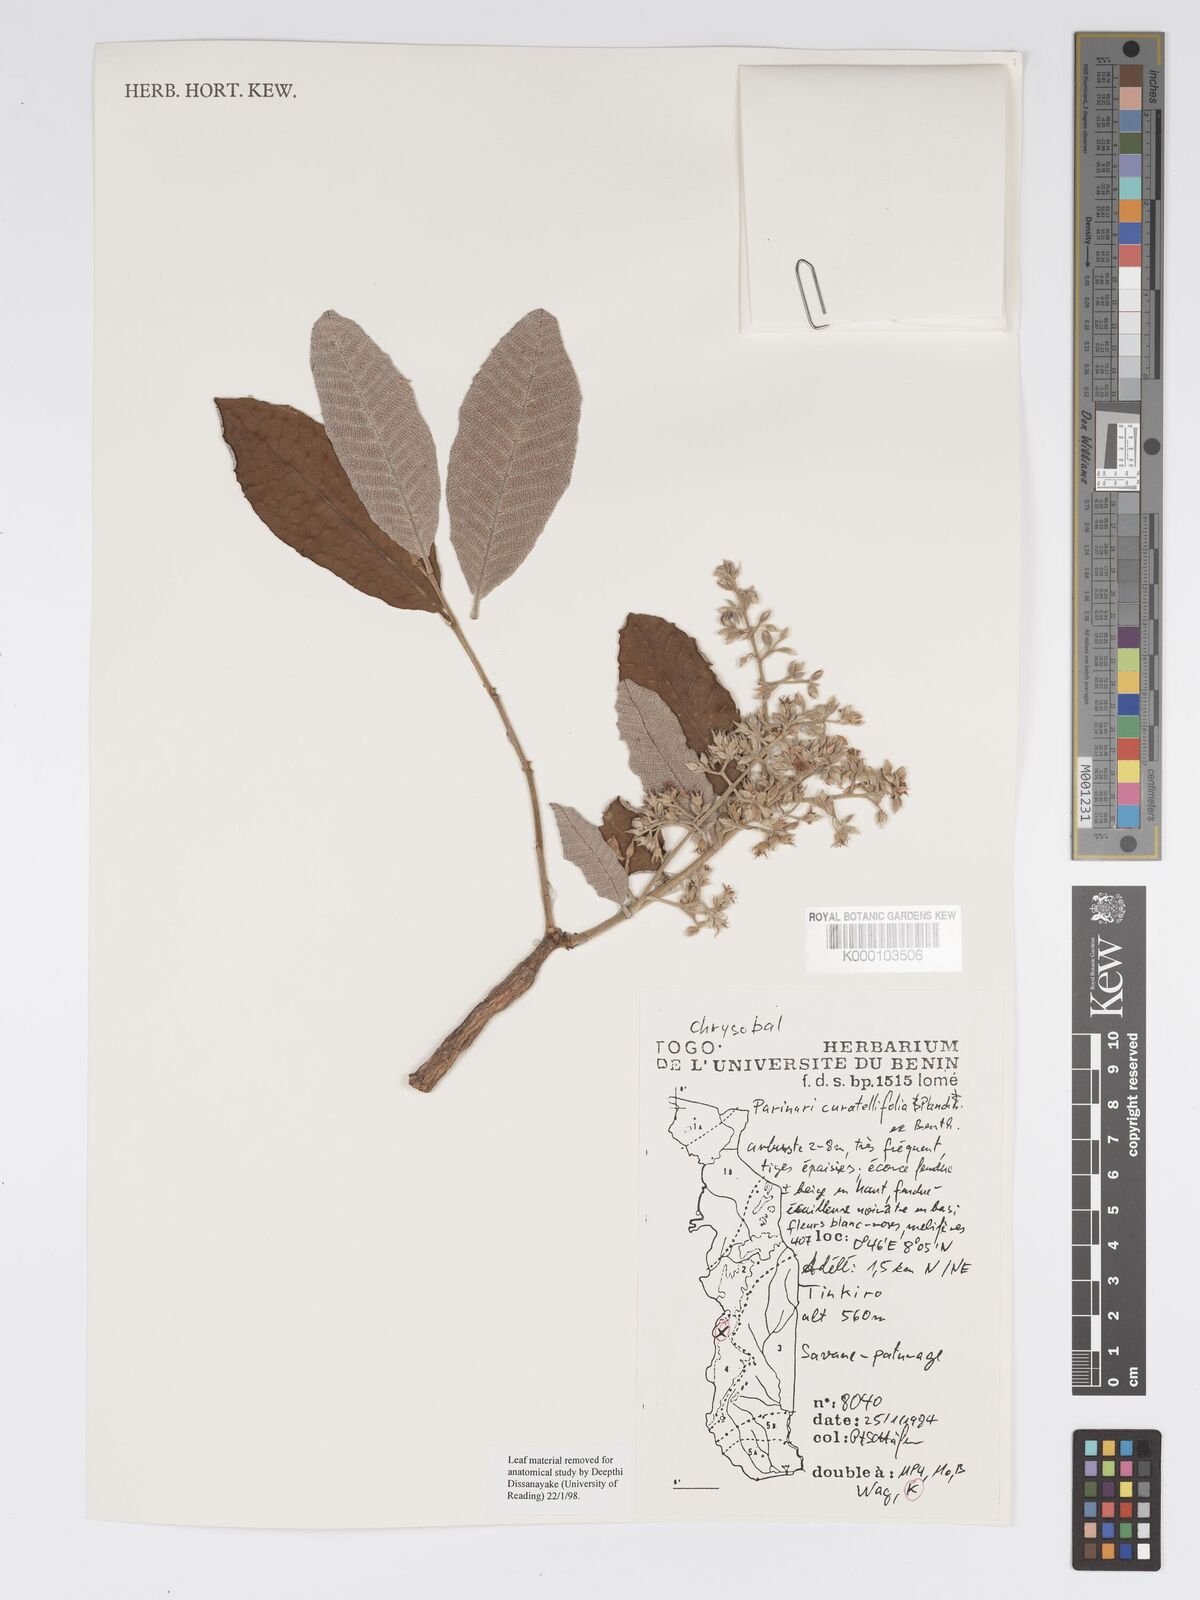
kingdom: Plantae
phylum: Tracheophyta
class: Magnoliopsida
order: Malpighiales
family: Chrysobalanaceae
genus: Parinari
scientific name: Parinari curatellifolia
